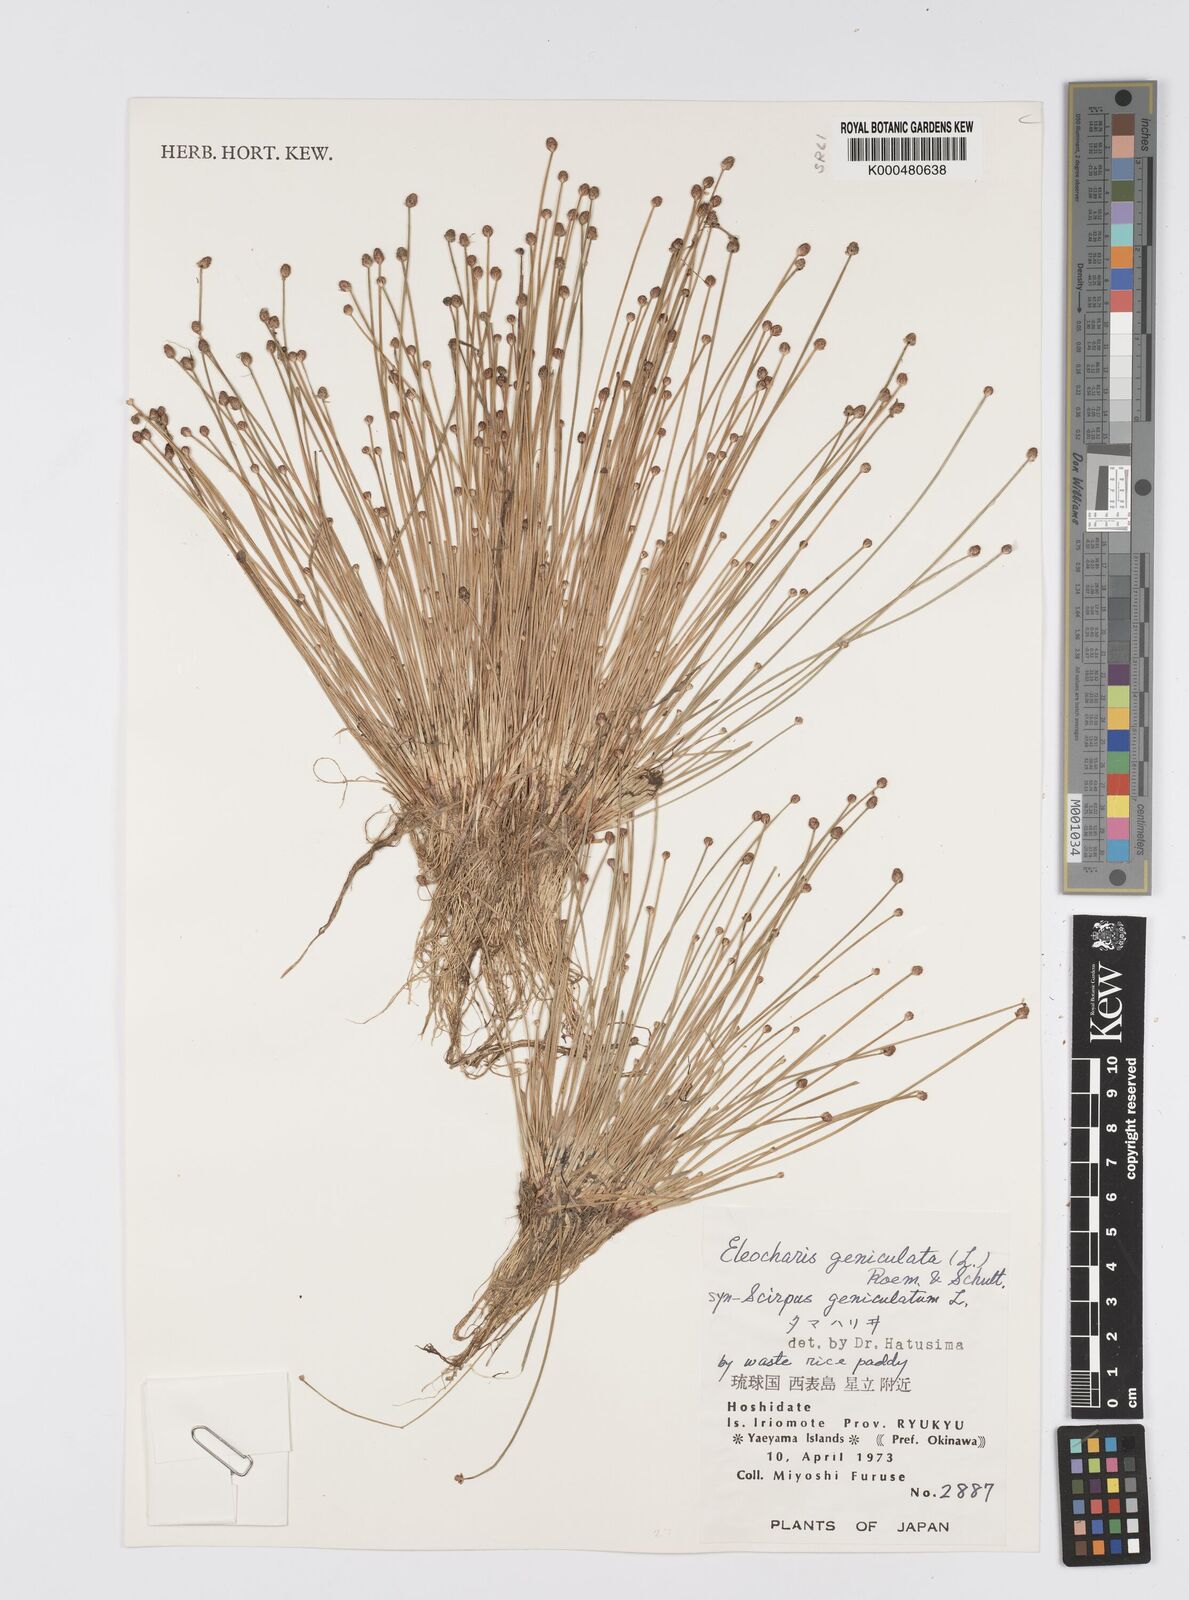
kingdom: Plantae
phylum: Tracheophyta
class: Liliopsida
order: Poales
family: Cyperaceae
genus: Eleocharis
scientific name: Eleocharis geniculata
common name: Canada spikesedge
